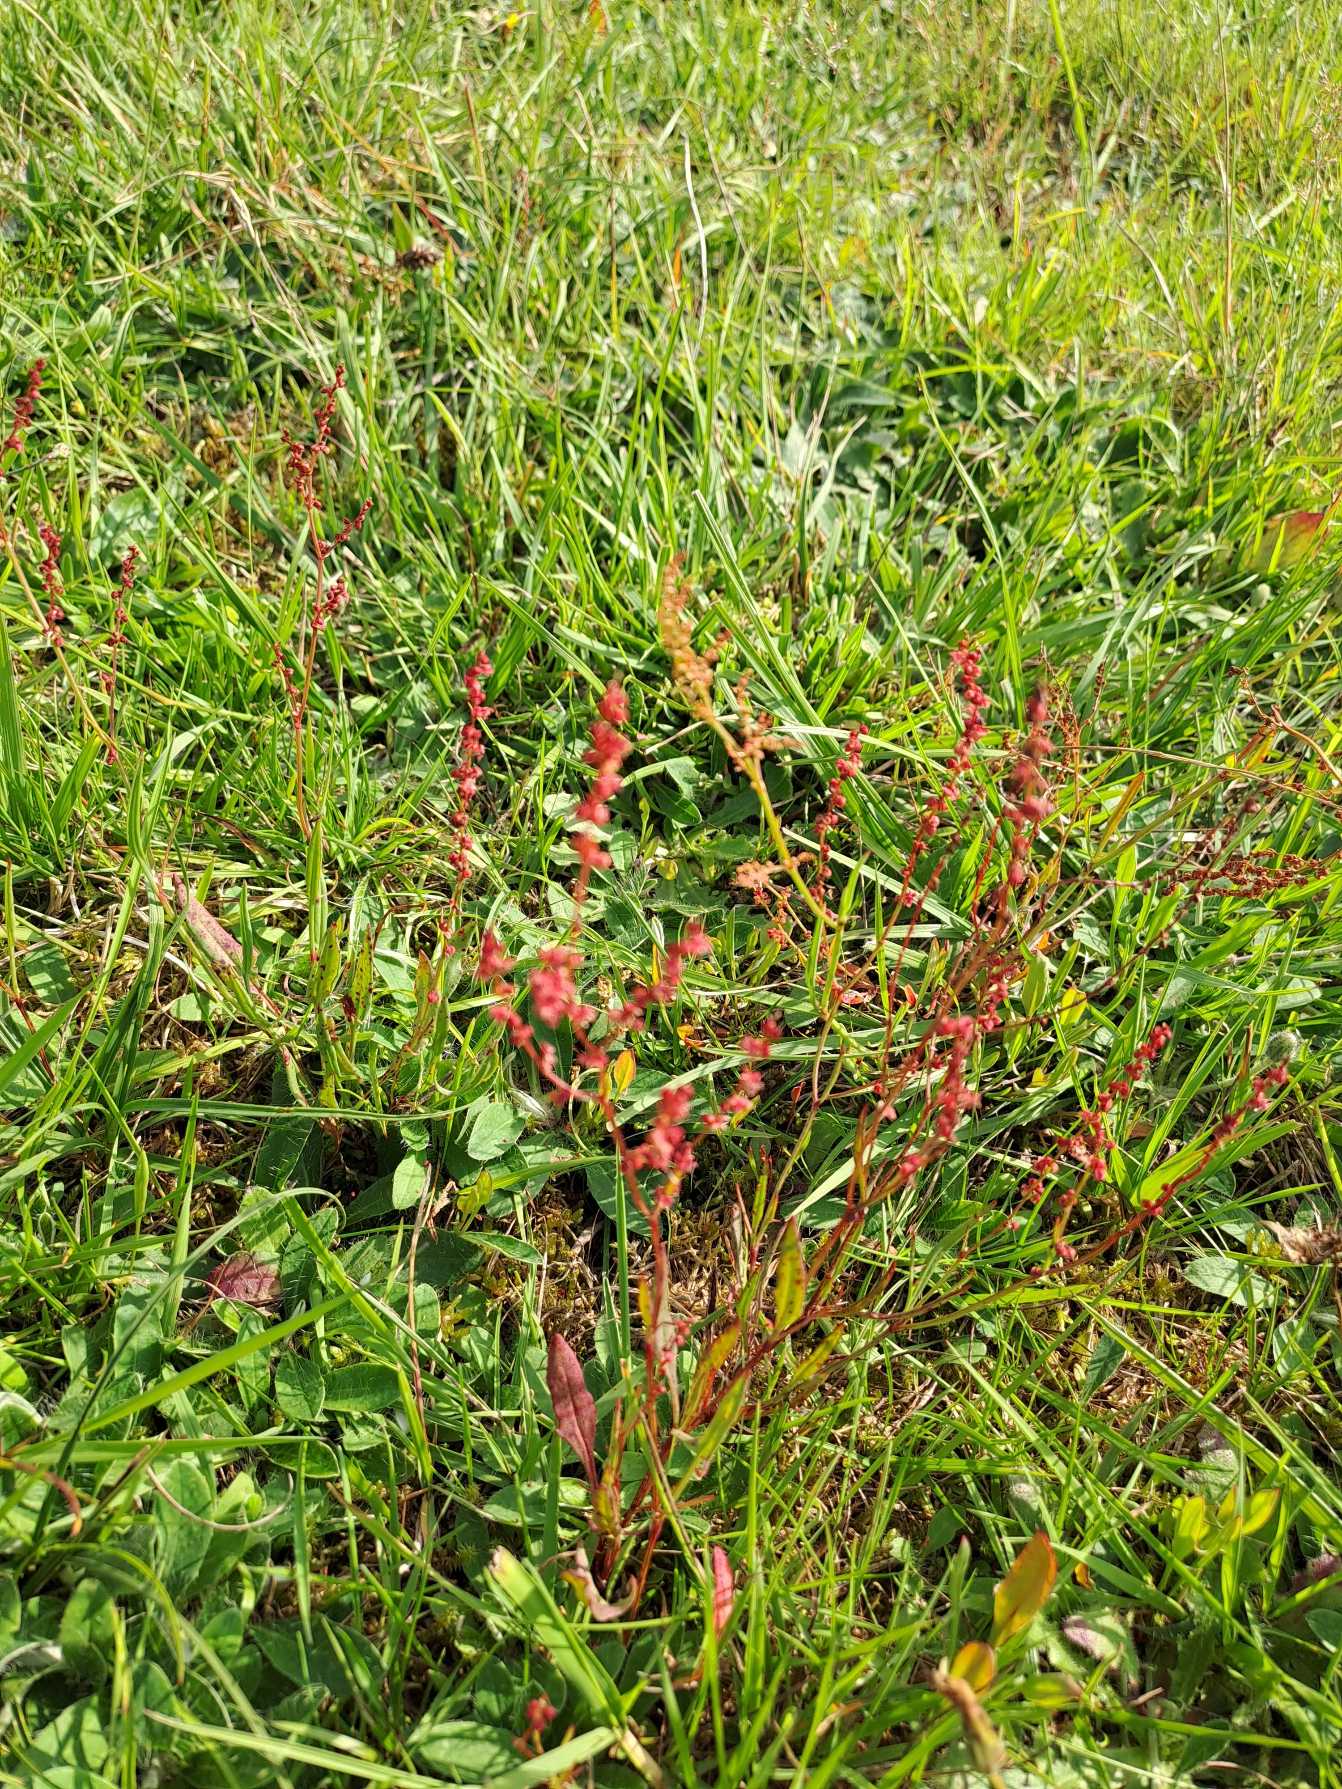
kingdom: Plantae
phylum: Tracheophyta
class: Magnoliopsida
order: Caryophyllales
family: Polygonaceae
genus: Rumex
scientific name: Rumex acetosella
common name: Rødknæ
